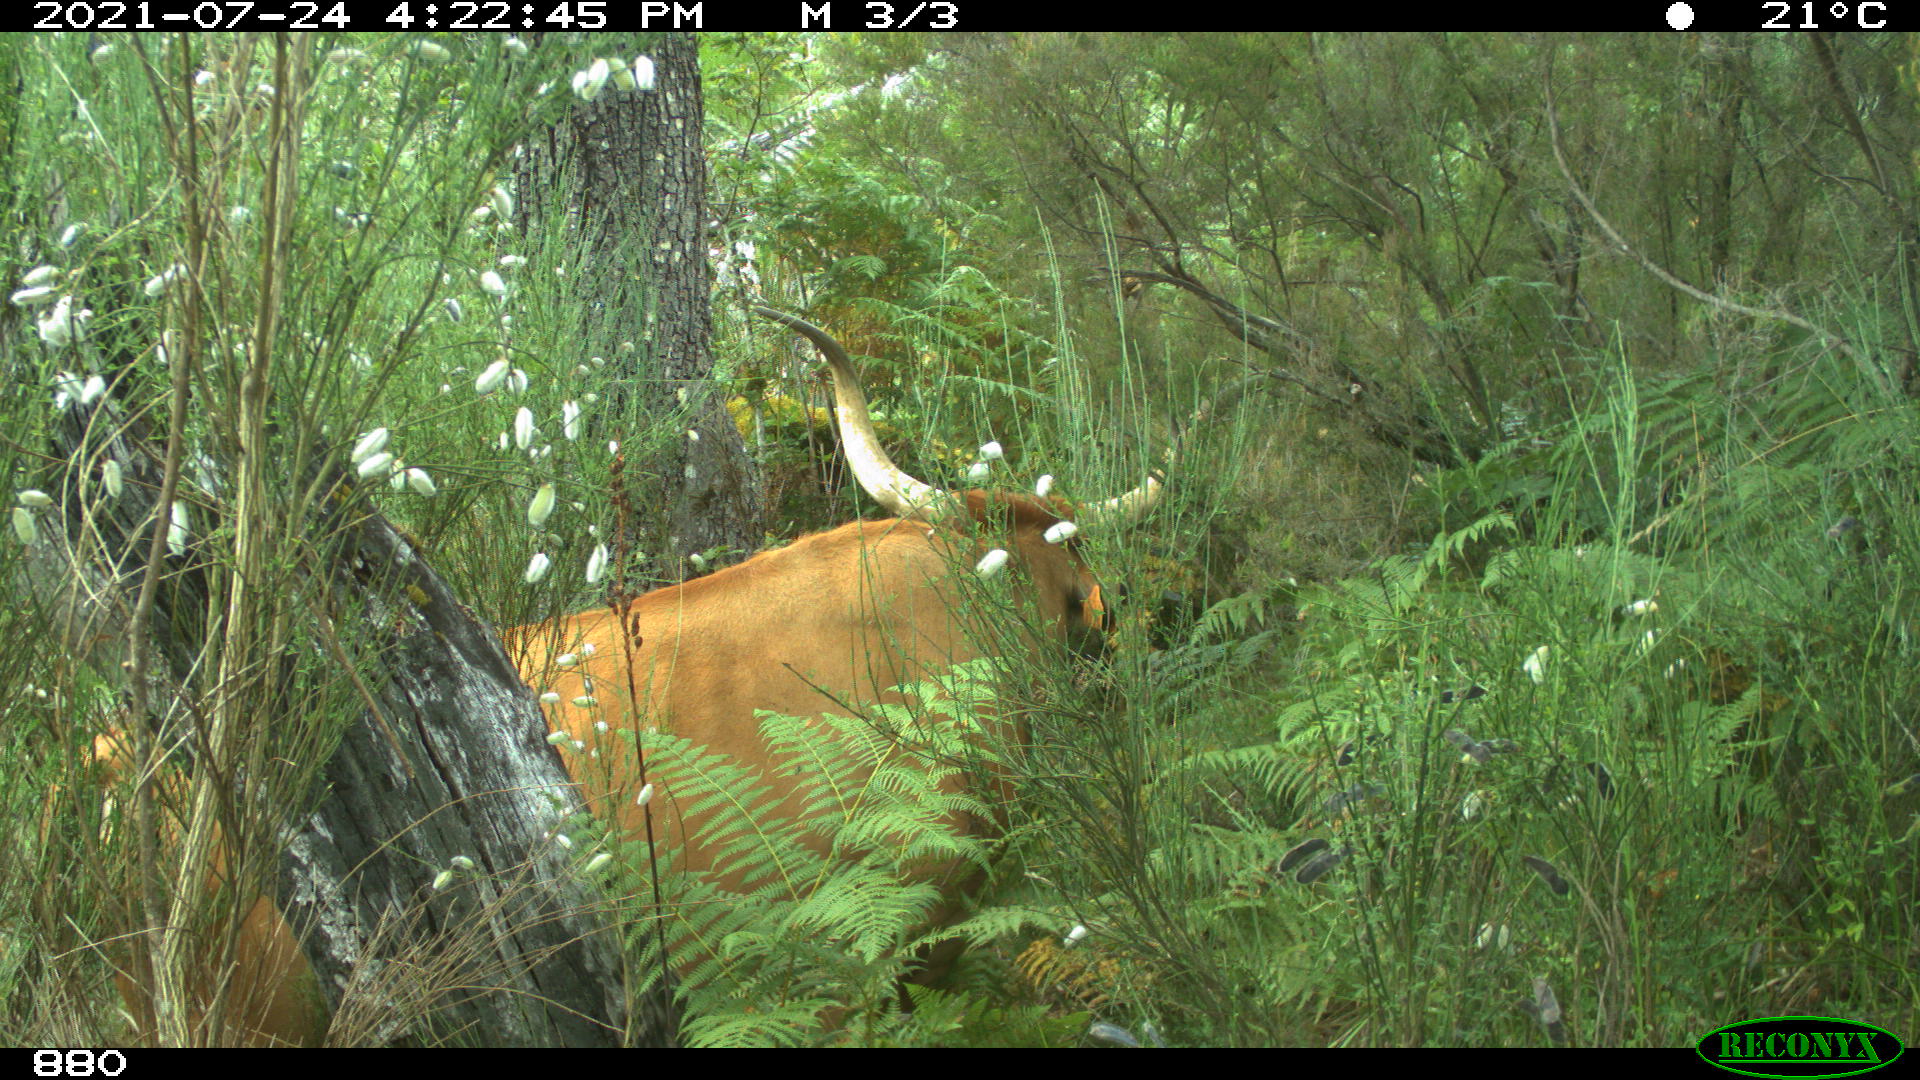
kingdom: Animalia
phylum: Chordata
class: Mammalia
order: Artiodactyla
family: Bovidae
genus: Bos
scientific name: Bos taurus
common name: Domesticated cattle
